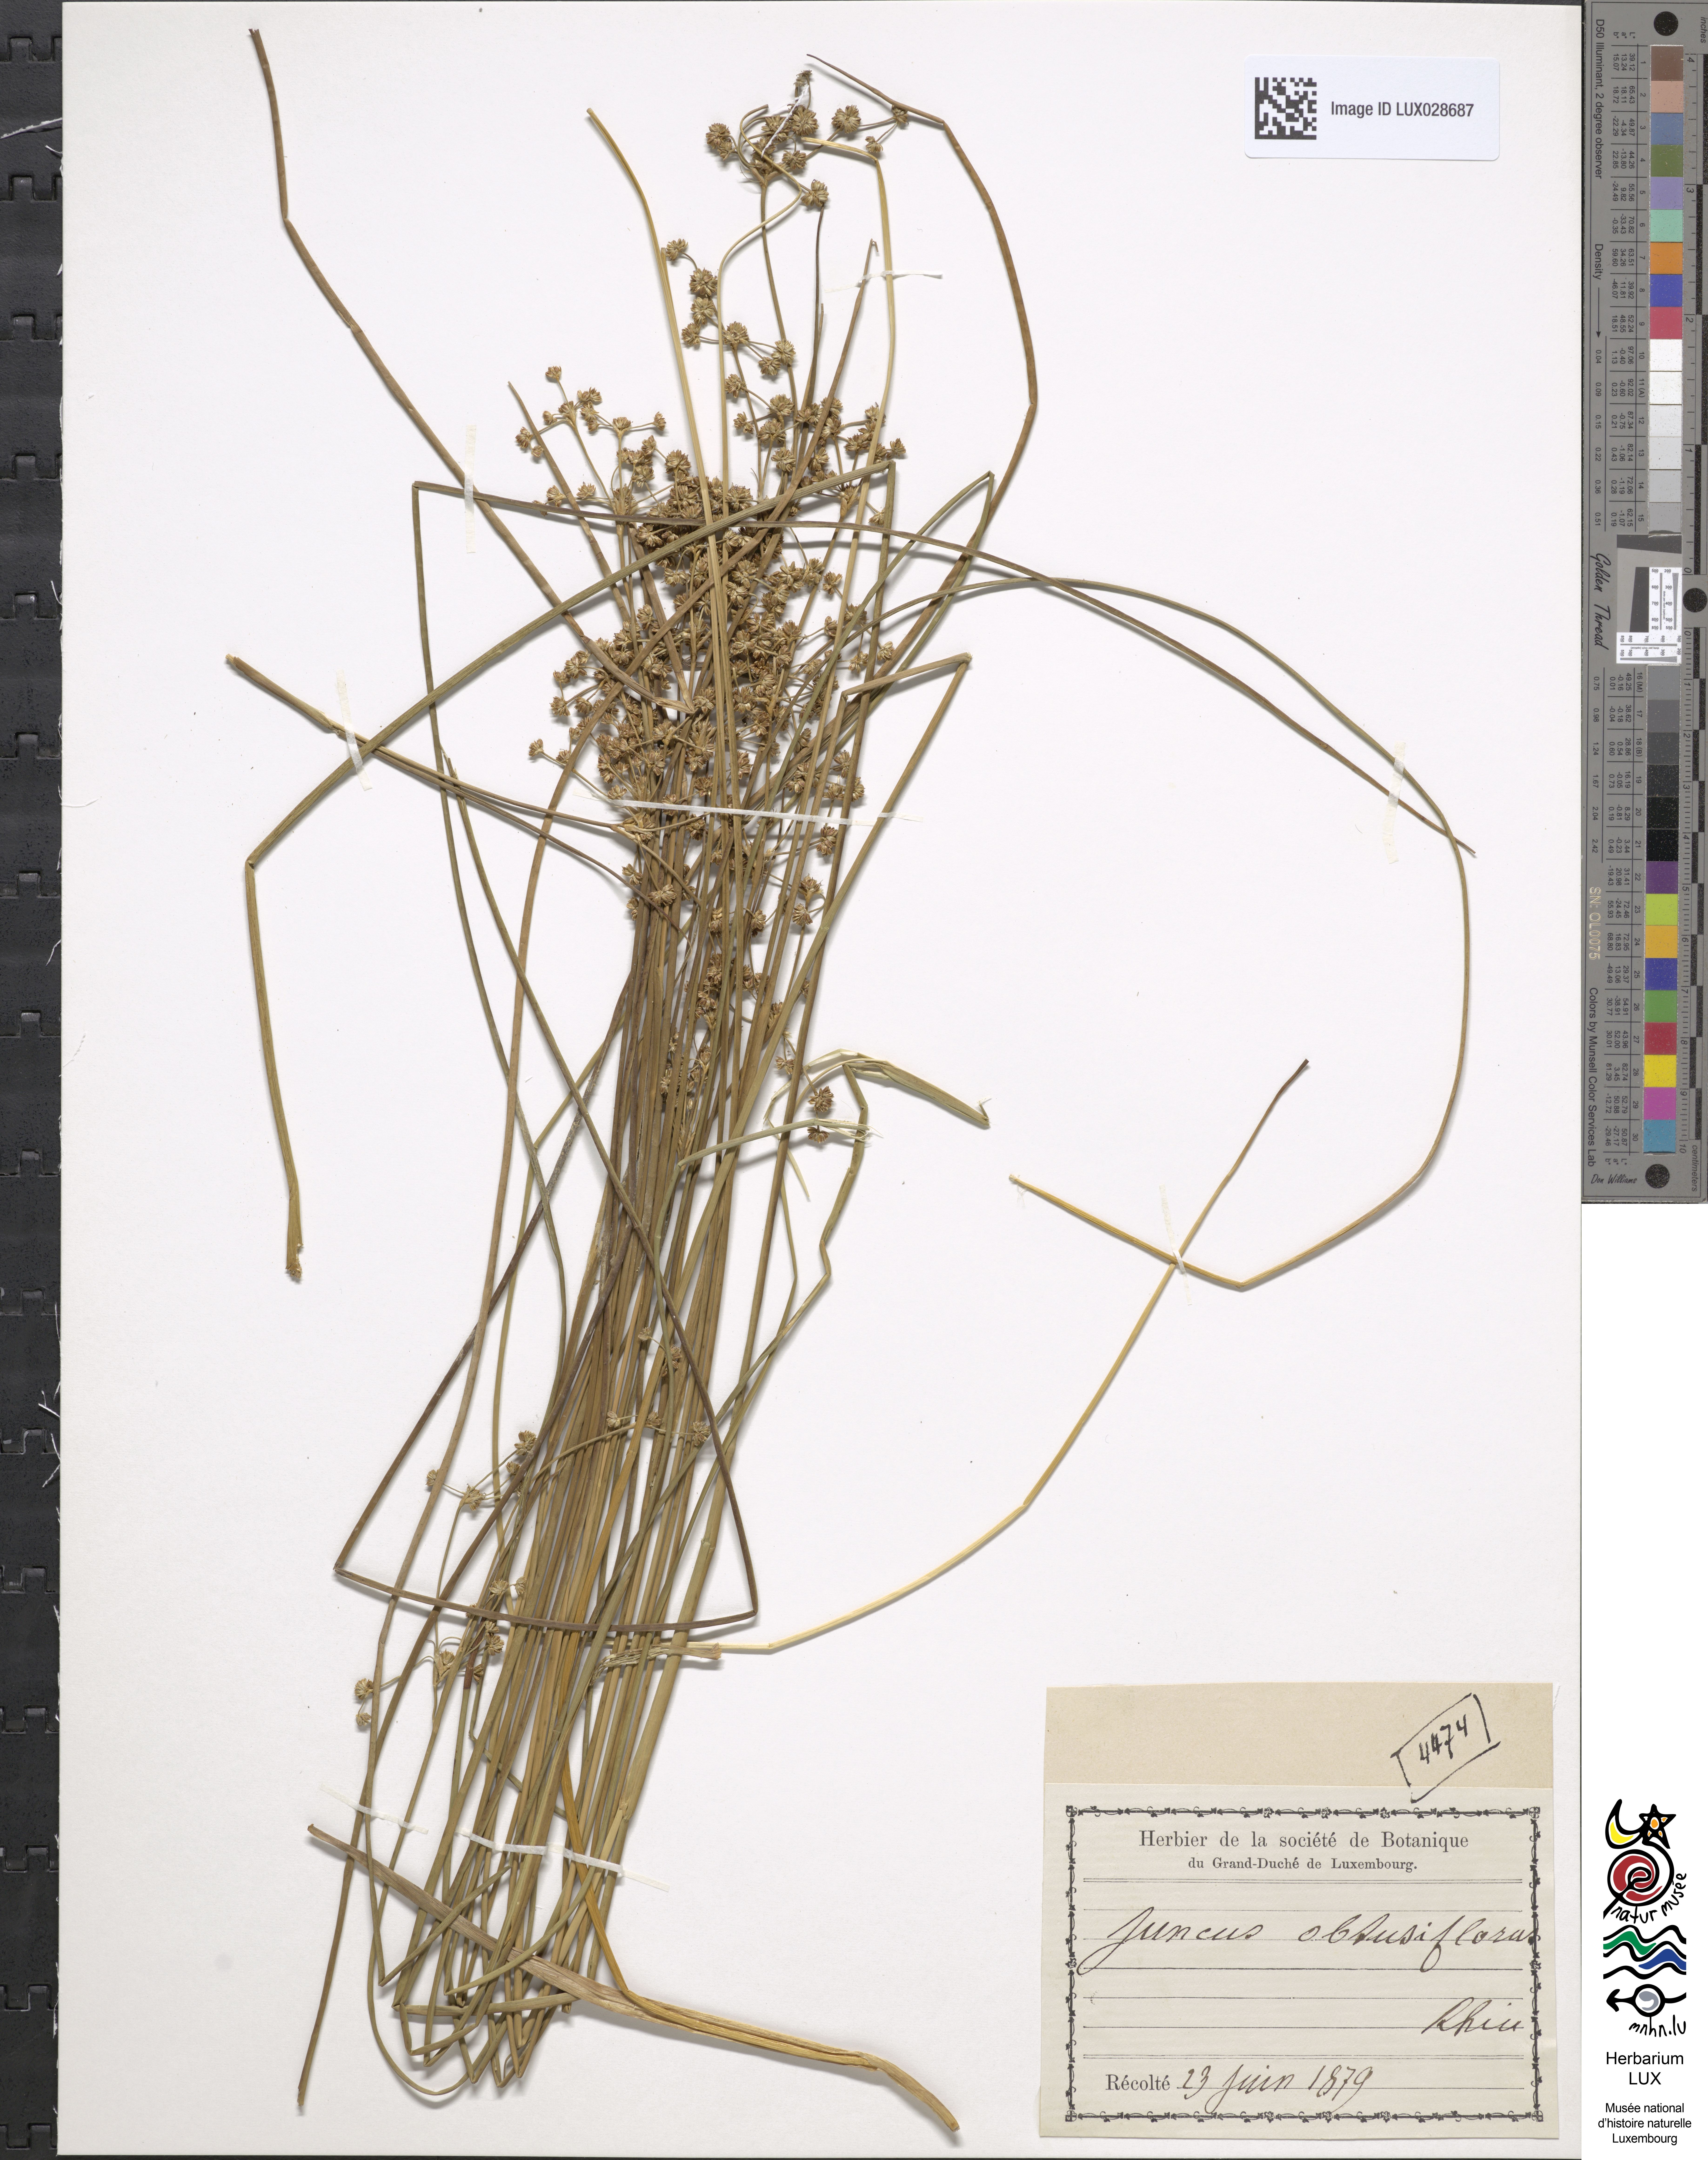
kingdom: Plantae
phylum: Tracheophyta
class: Liliopsida
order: Poales
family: Juncaceae
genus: Juncus
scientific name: Juncus subnodulosus
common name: Blunt-flowered rush
